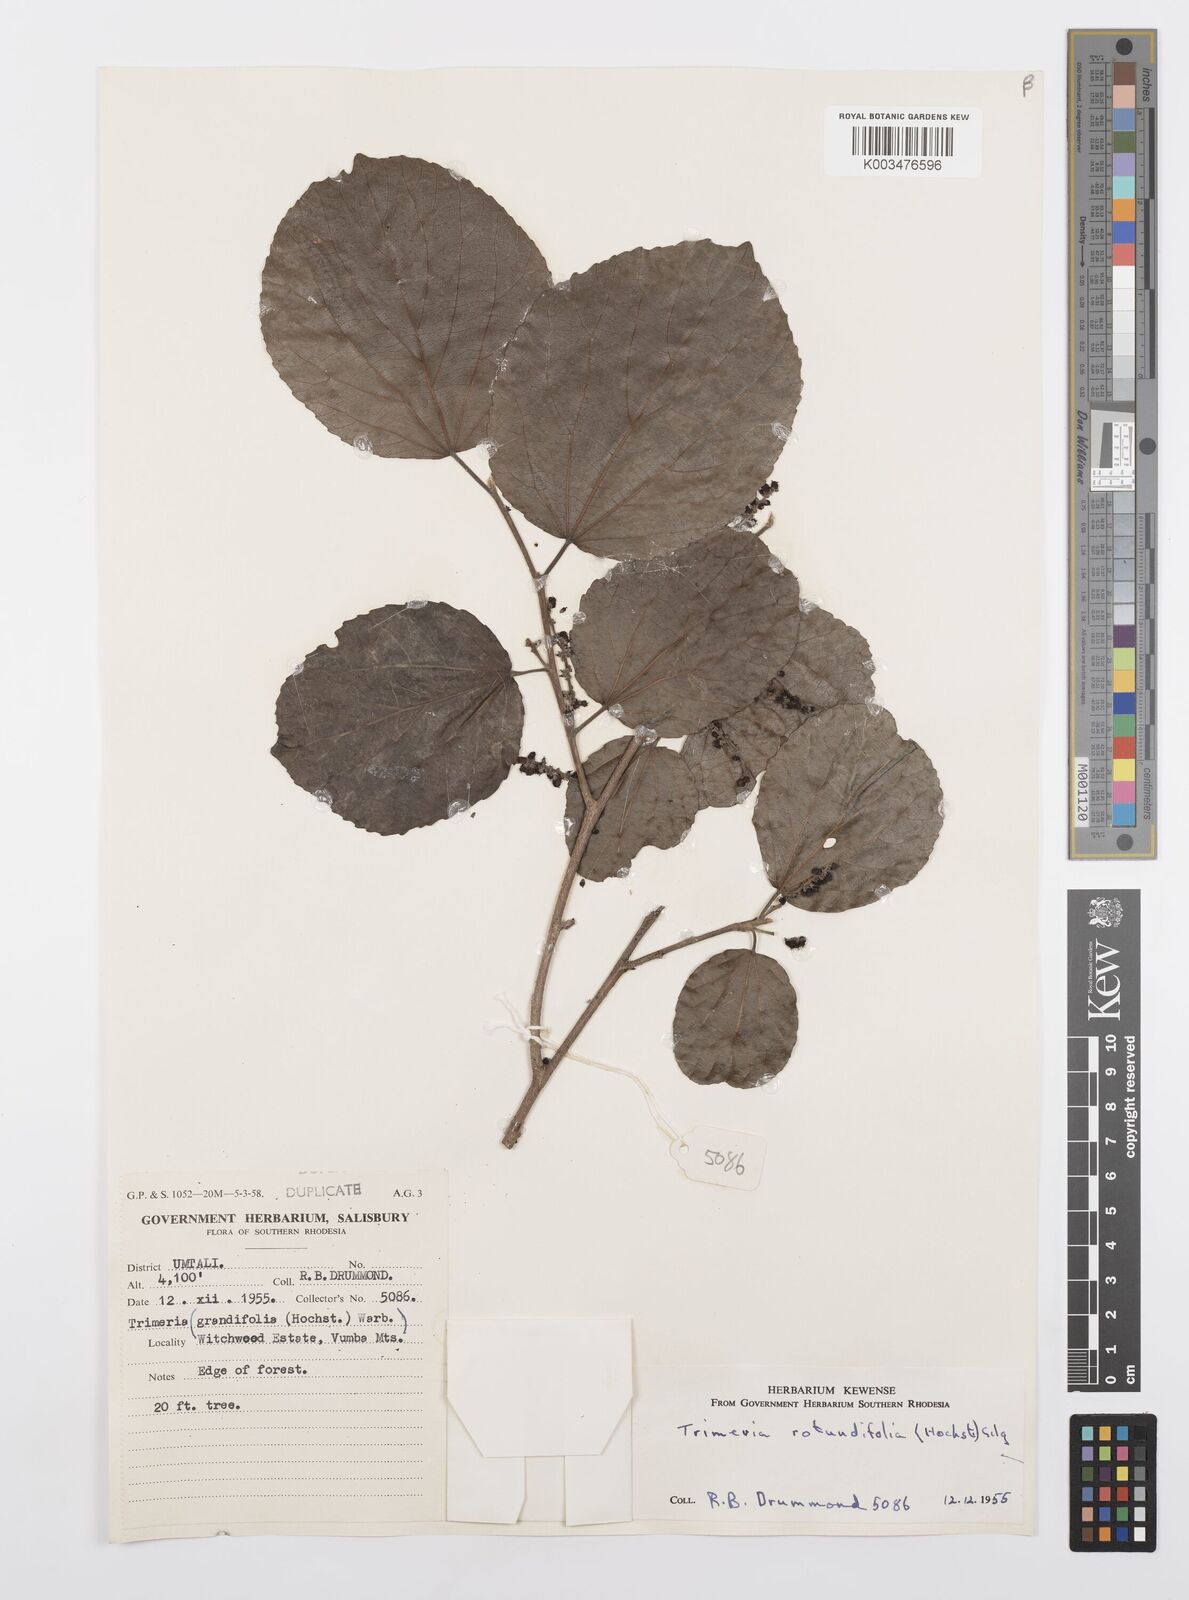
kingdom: Plantae
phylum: Tracheophyta
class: Magnoliopsida
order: Malpighiales
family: Salicaceae
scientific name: Salicaceae
